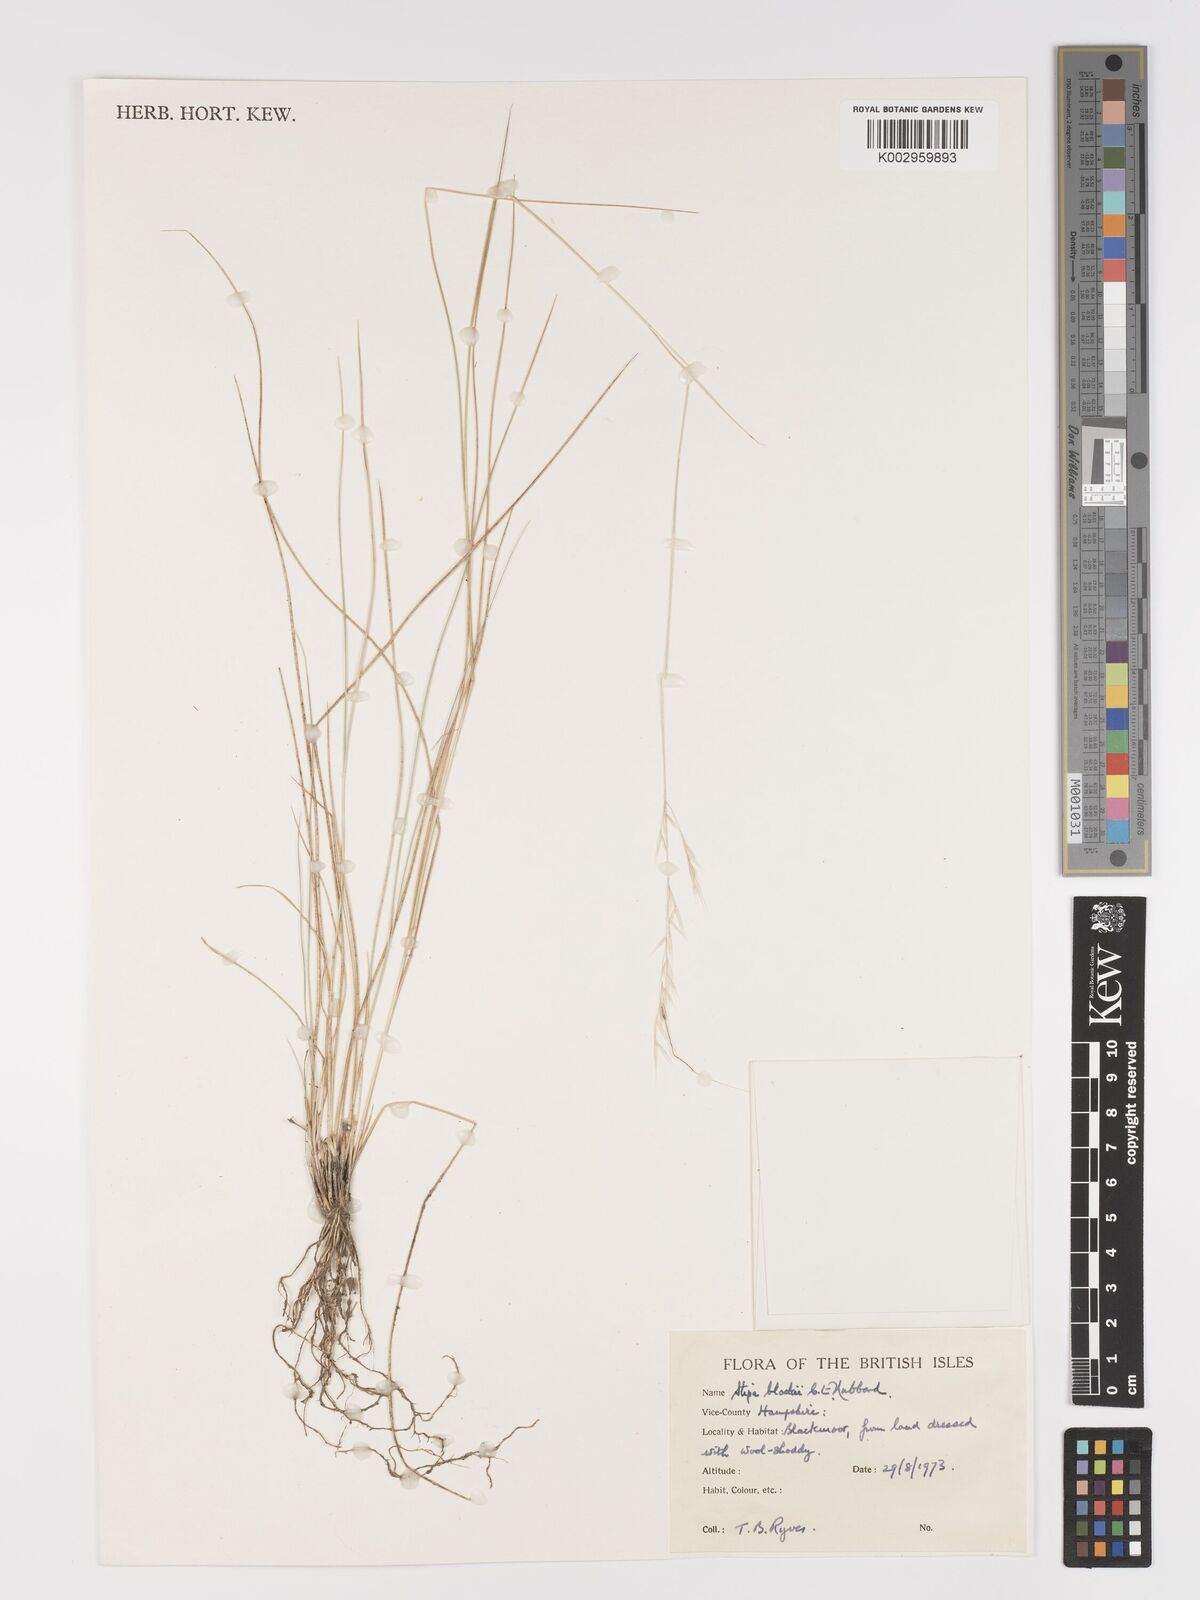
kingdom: Plantae
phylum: Tracheophyta
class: Liliopsida
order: Poales
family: Poaceae
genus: Austrostipa
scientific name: Austrostipa blackii
